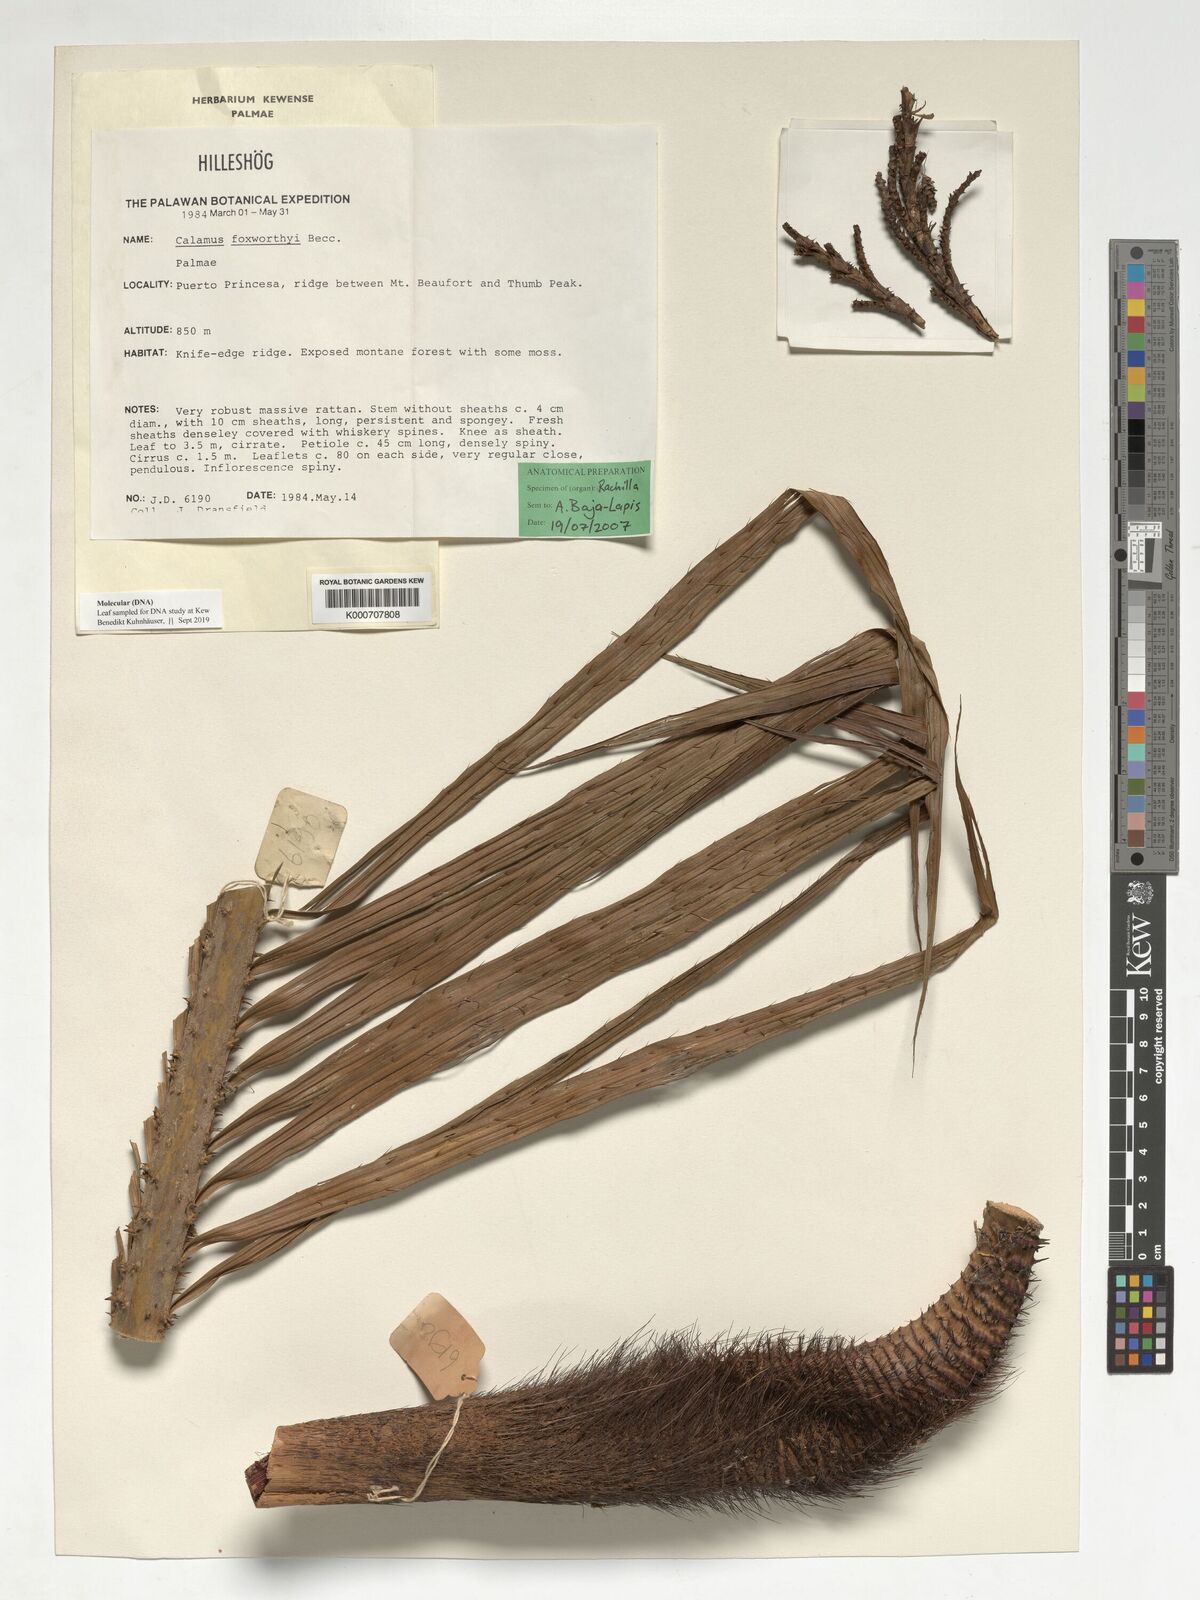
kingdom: Plantae
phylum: Tracheophyta
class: Liliopsida
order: Arecales
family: Arecaceae
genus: Calamus
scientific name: Calamus zollingeri
